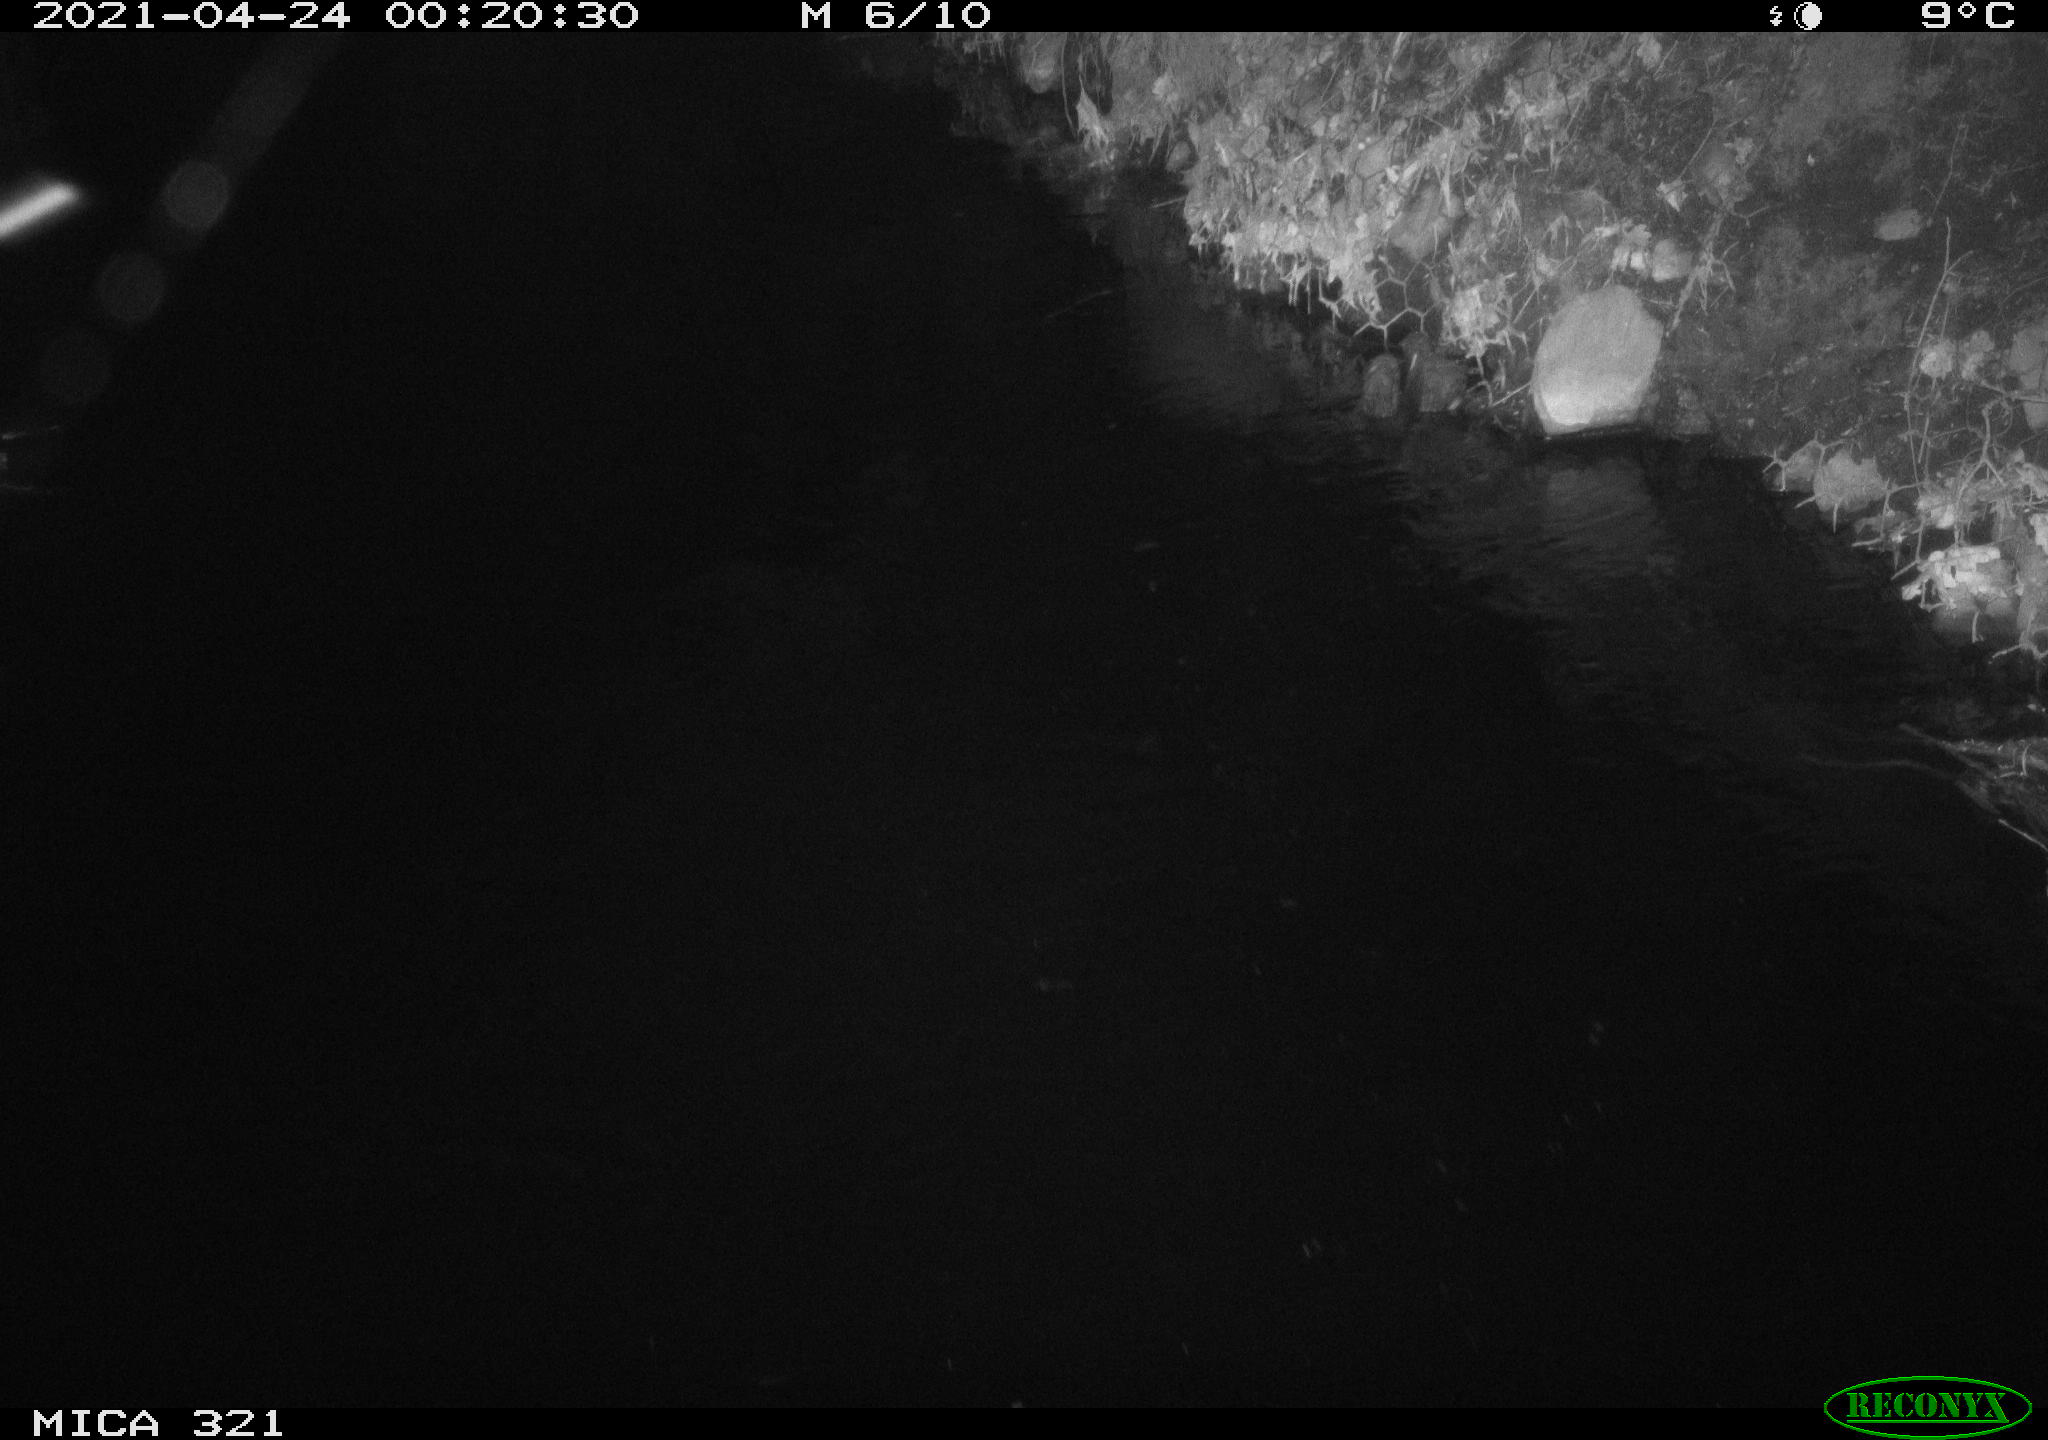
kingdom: Animalia
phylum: Chordata
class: Aves
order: Anseriformes
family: Anatidae
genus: Anas
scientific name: Anas
